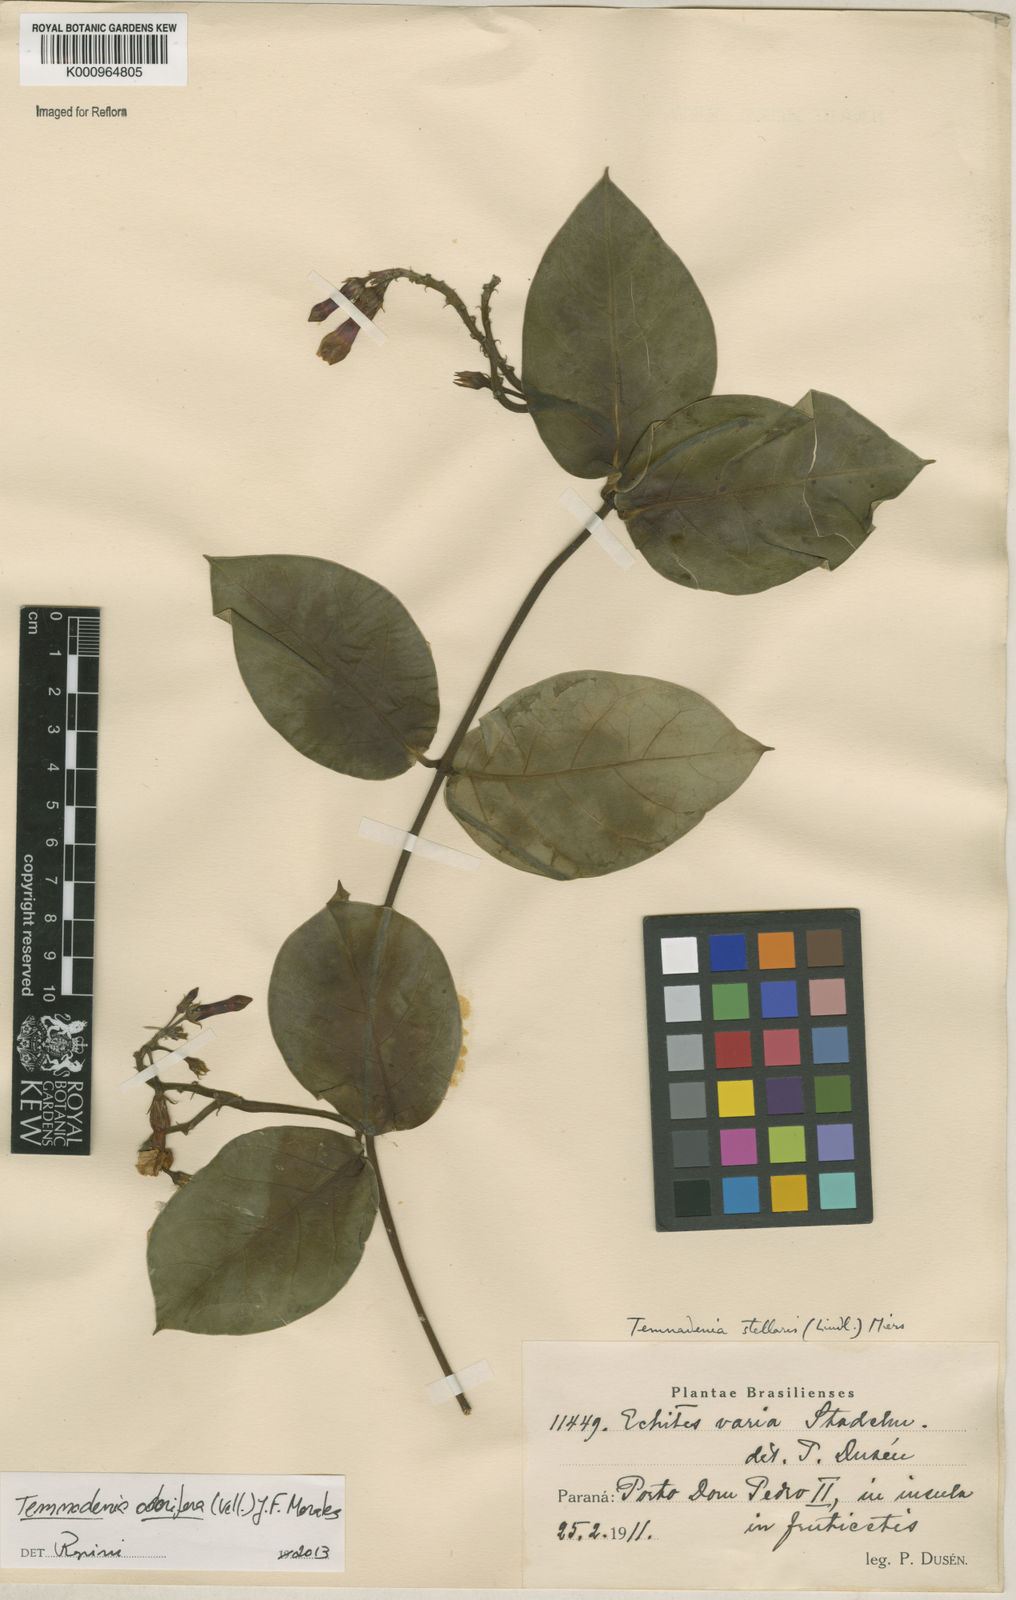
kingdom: Plantae
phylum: Tracheophyta
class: Magnoliopsida
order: Gentianales
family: Apocynaceae
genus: Temnadenia
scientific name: Temnadenia odorifera
